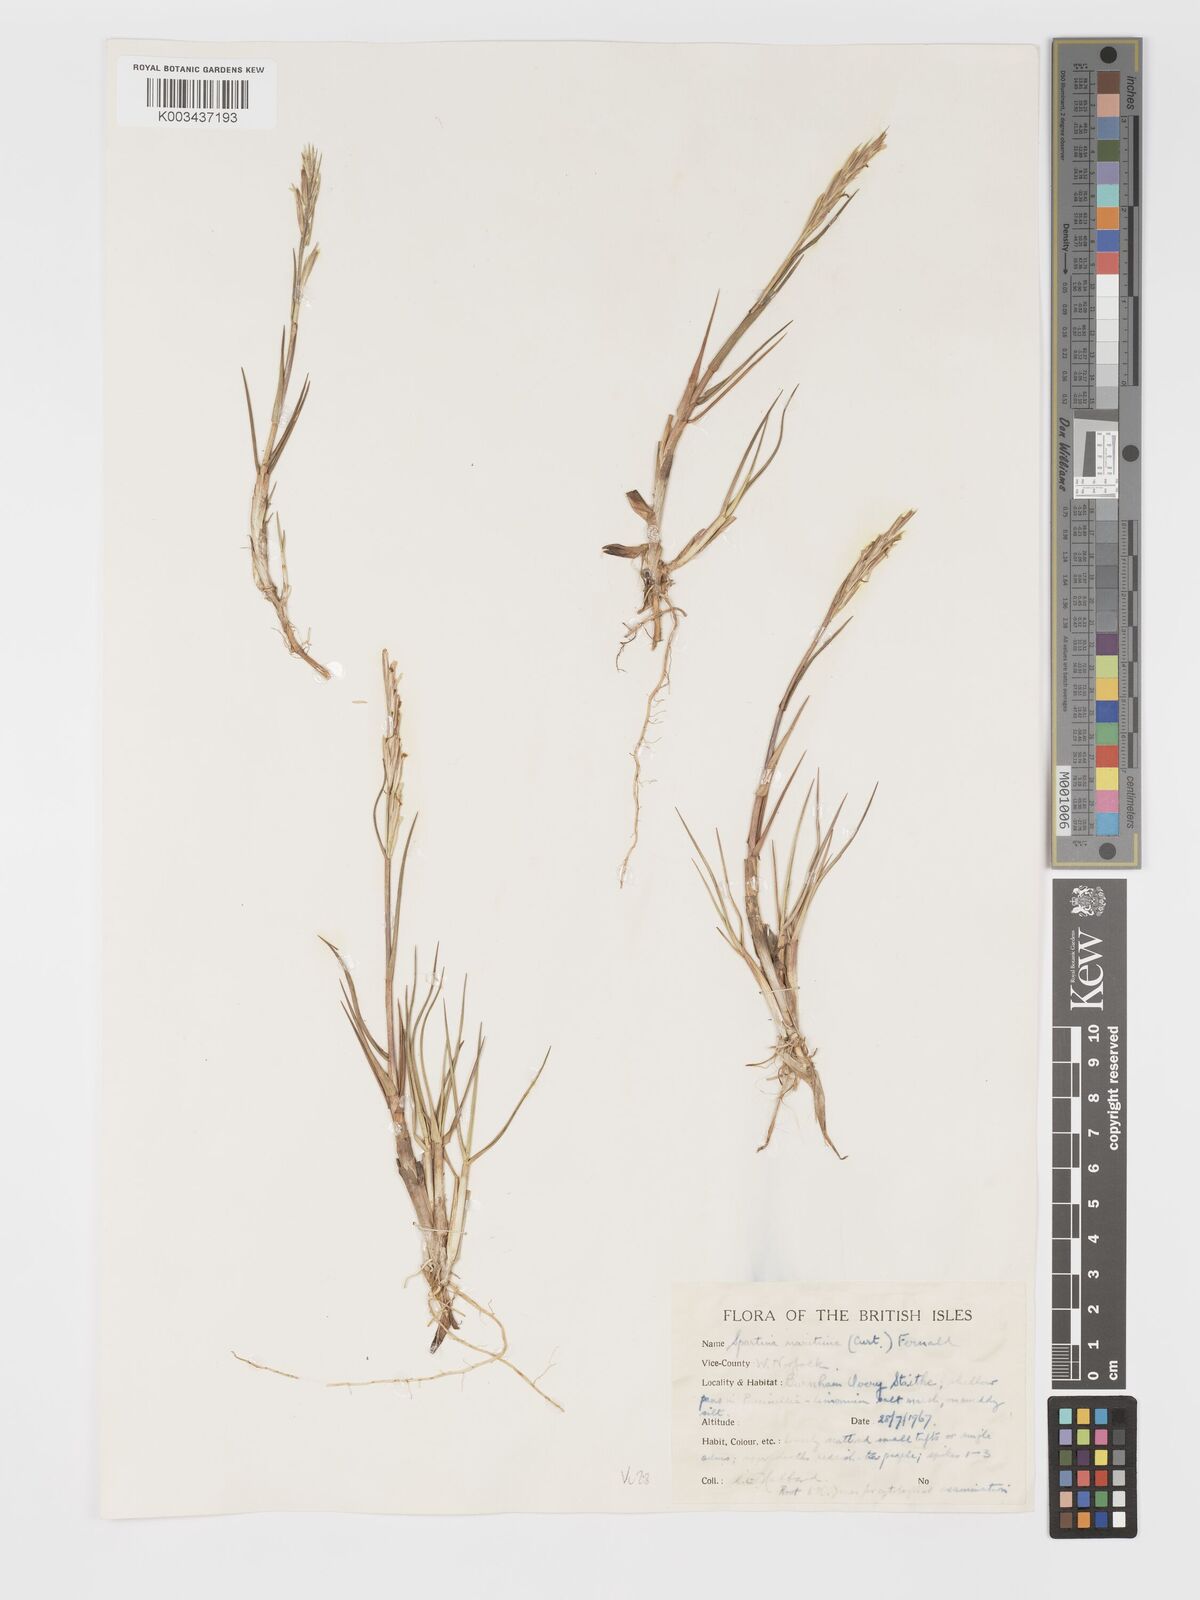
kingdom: Plantae
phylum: Tracheophyta
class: Liliopsida
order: Poales
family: Poaceae
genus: Sporobolus
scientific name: Sporobolus maritimus
